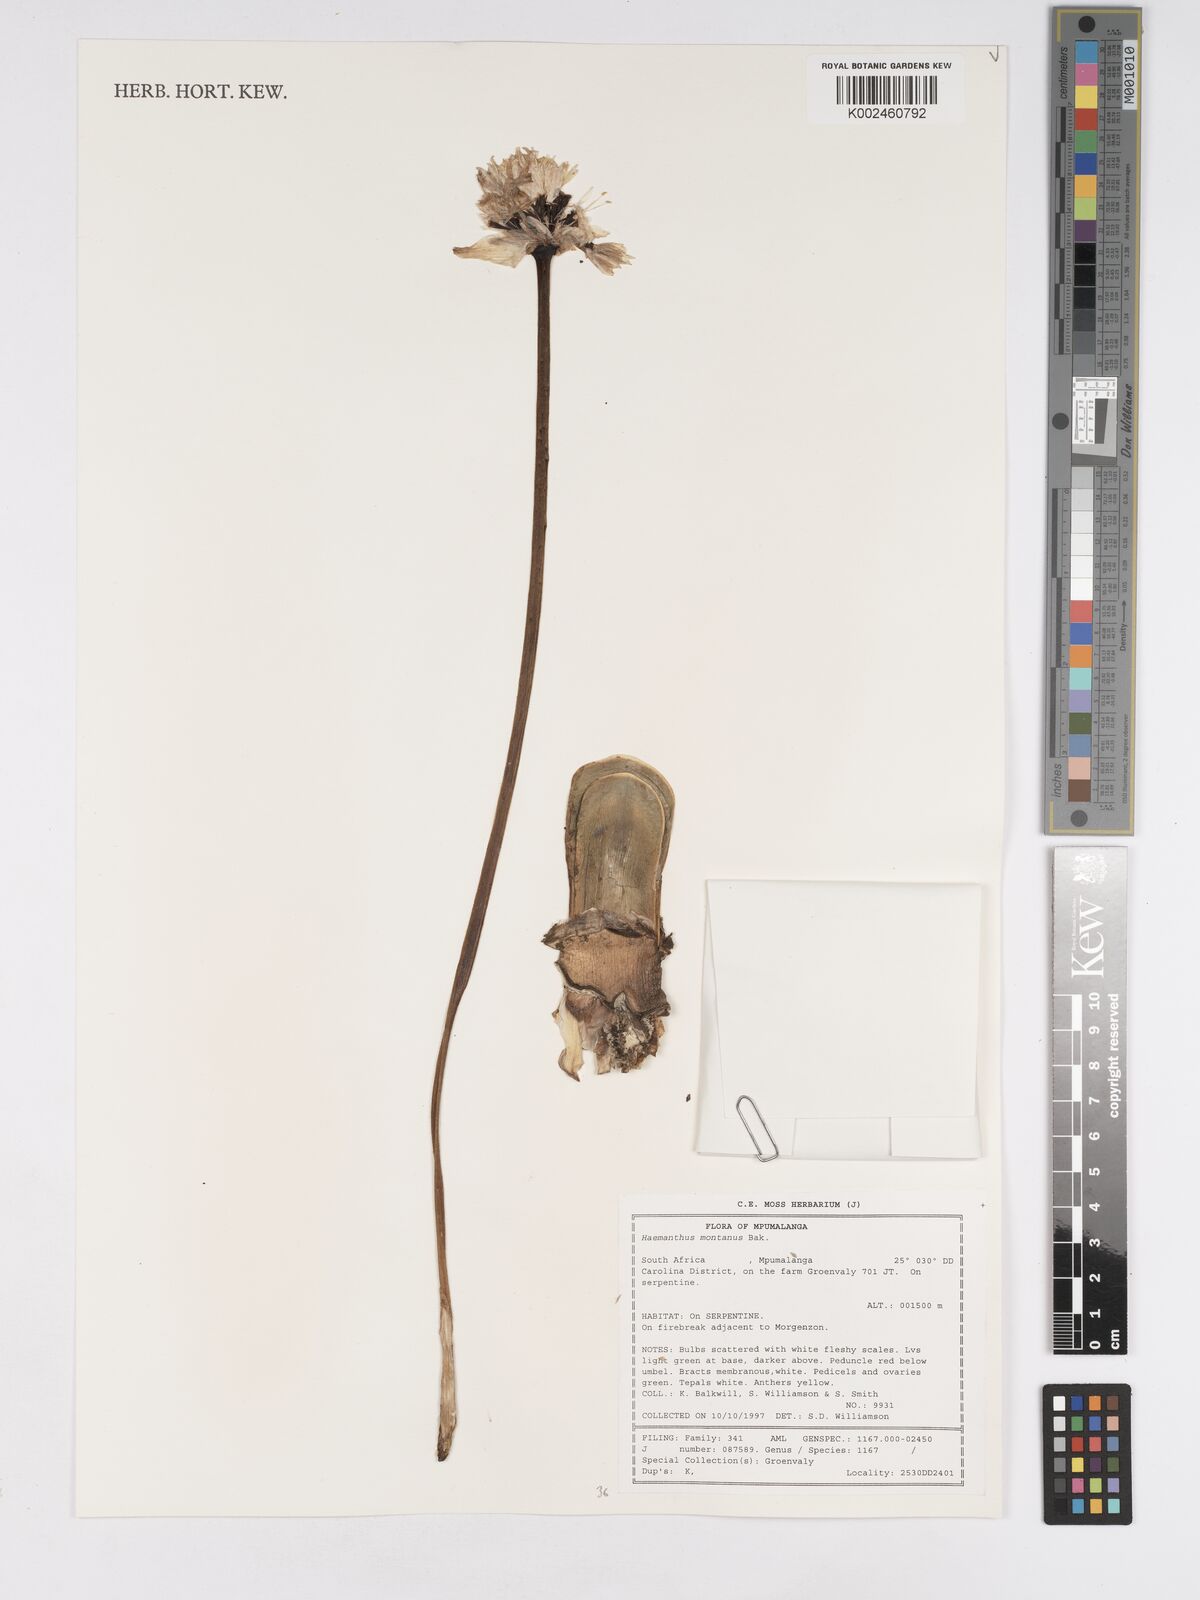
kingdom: Plantae
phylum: Tracheophyta
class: Liliopsida
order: Asparagales
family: Amaryllidaceae
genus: Haemanthus
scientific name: Haemanthus montanus
